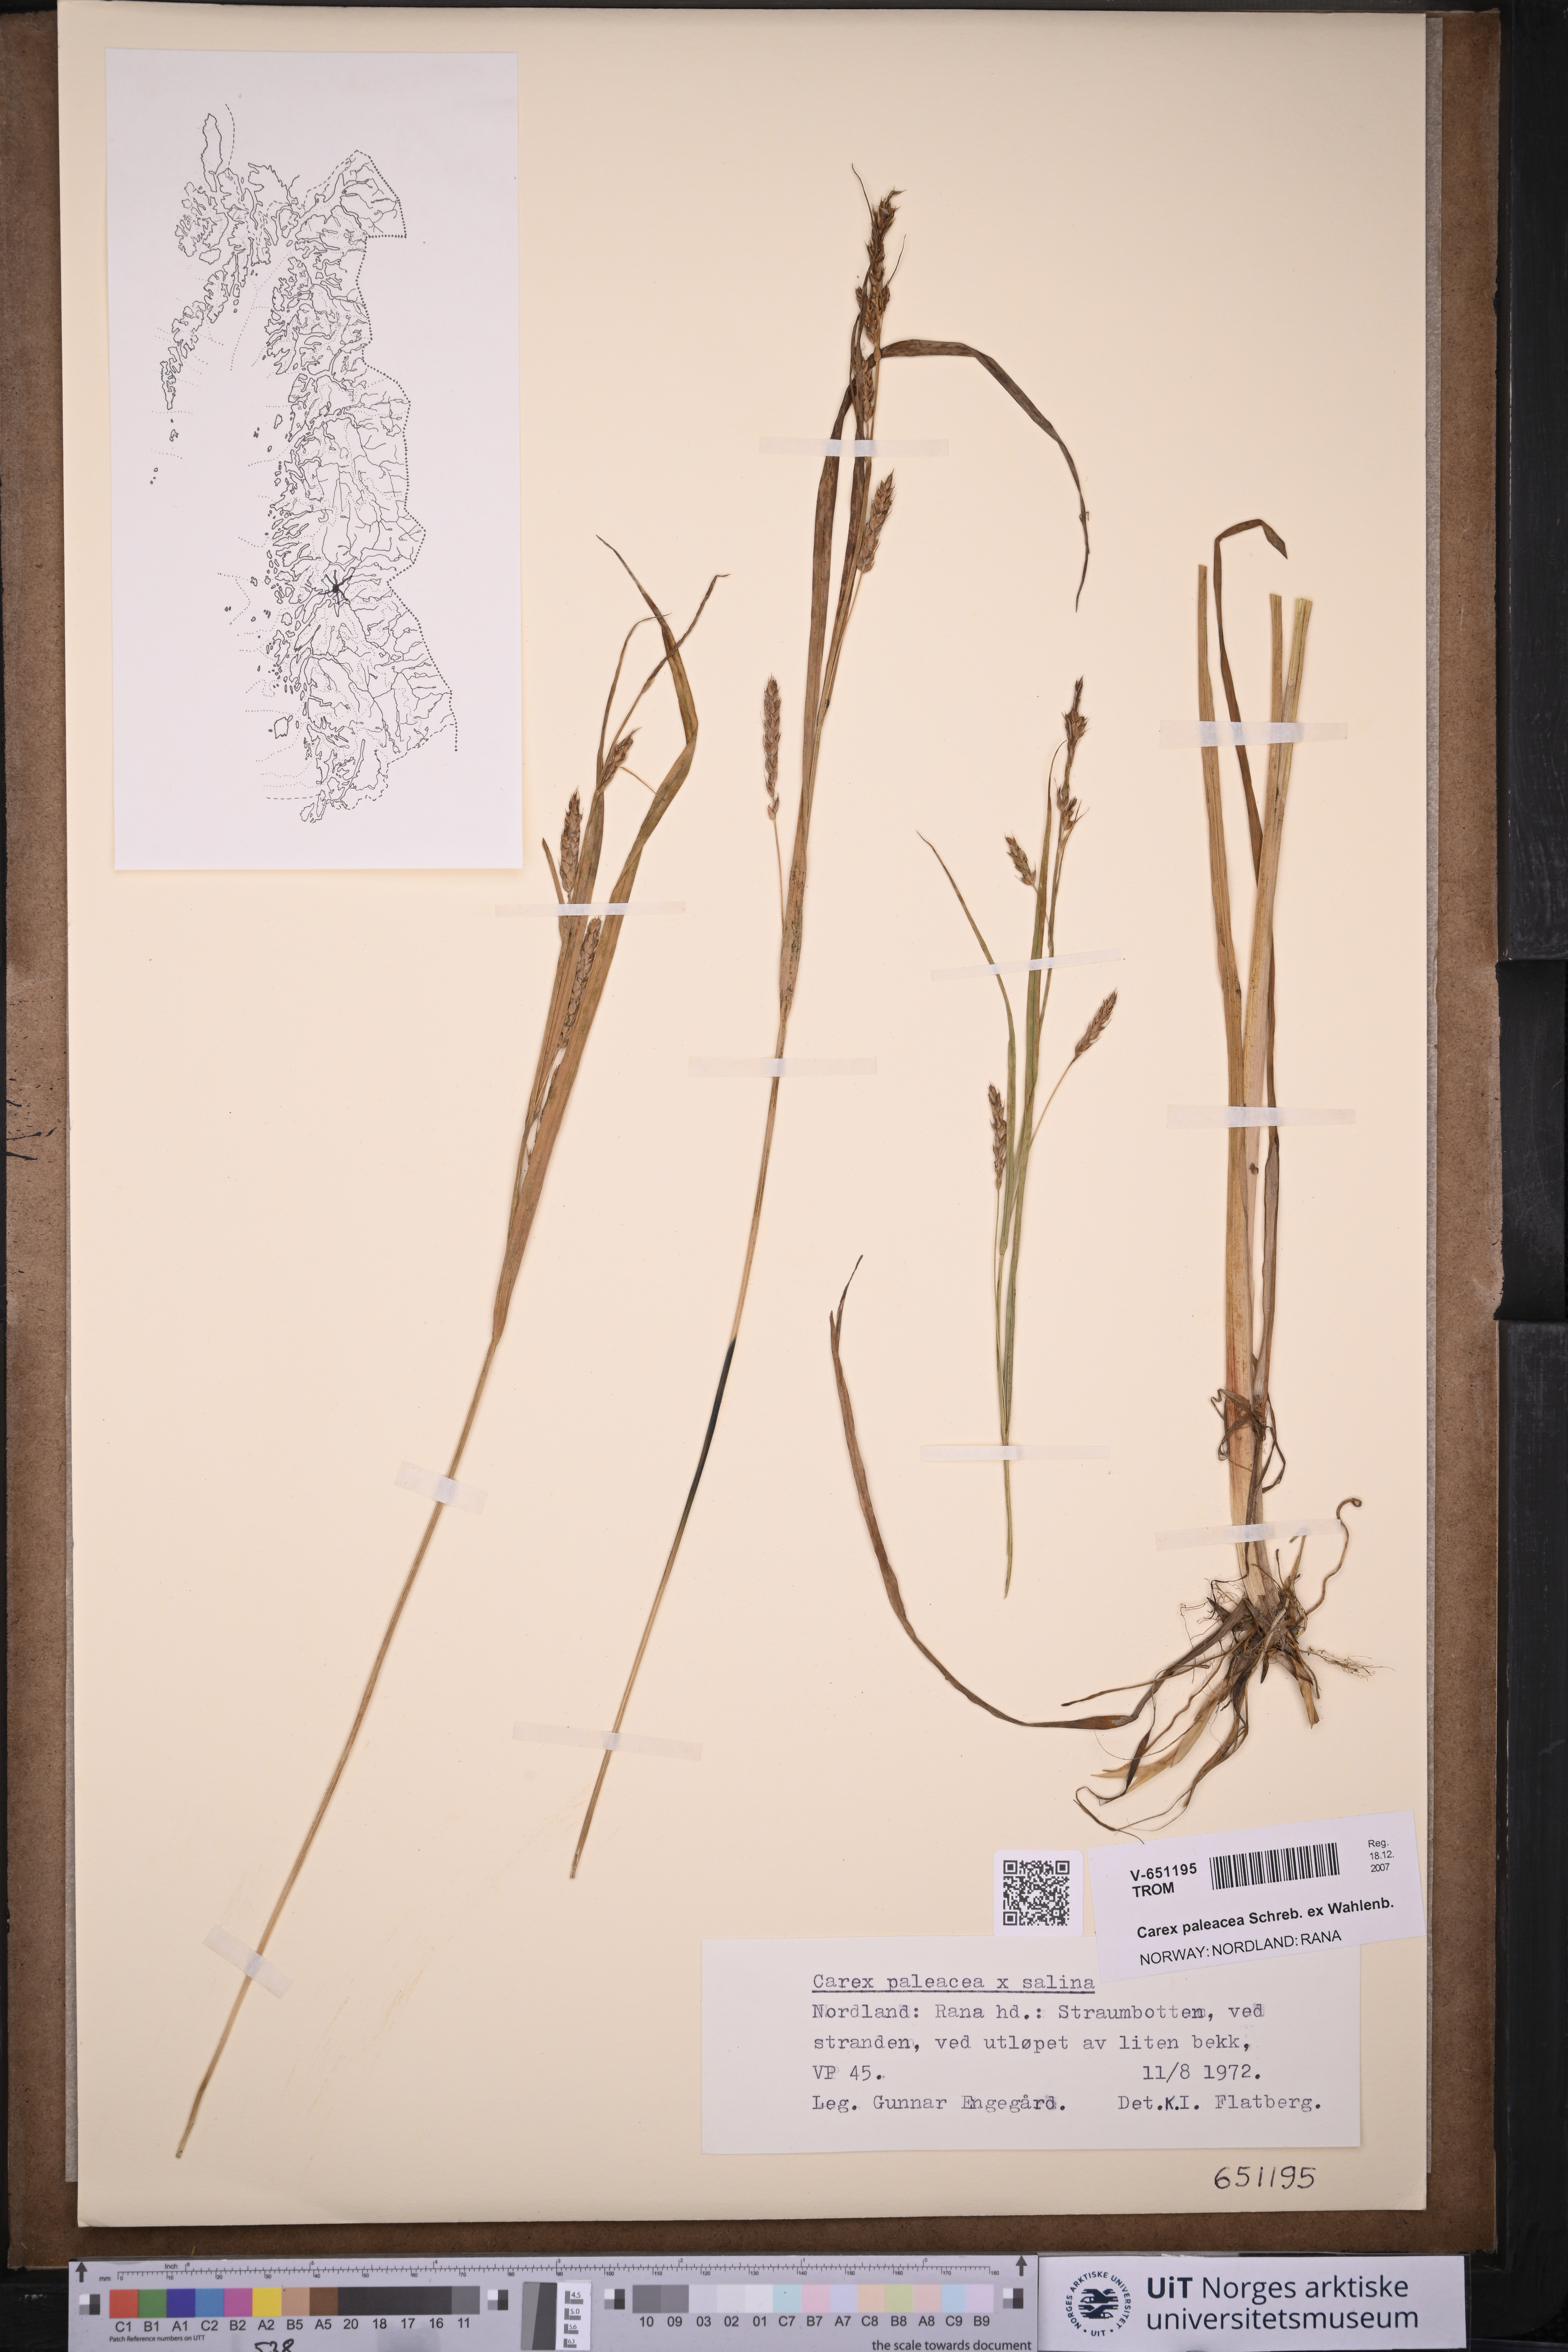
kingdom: Plantae
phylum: Tracheophyta
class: Liliopsida
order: Poales
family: Cyperaceae
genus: Carex
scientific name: Carex paleacea
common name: Chaffy sedge
